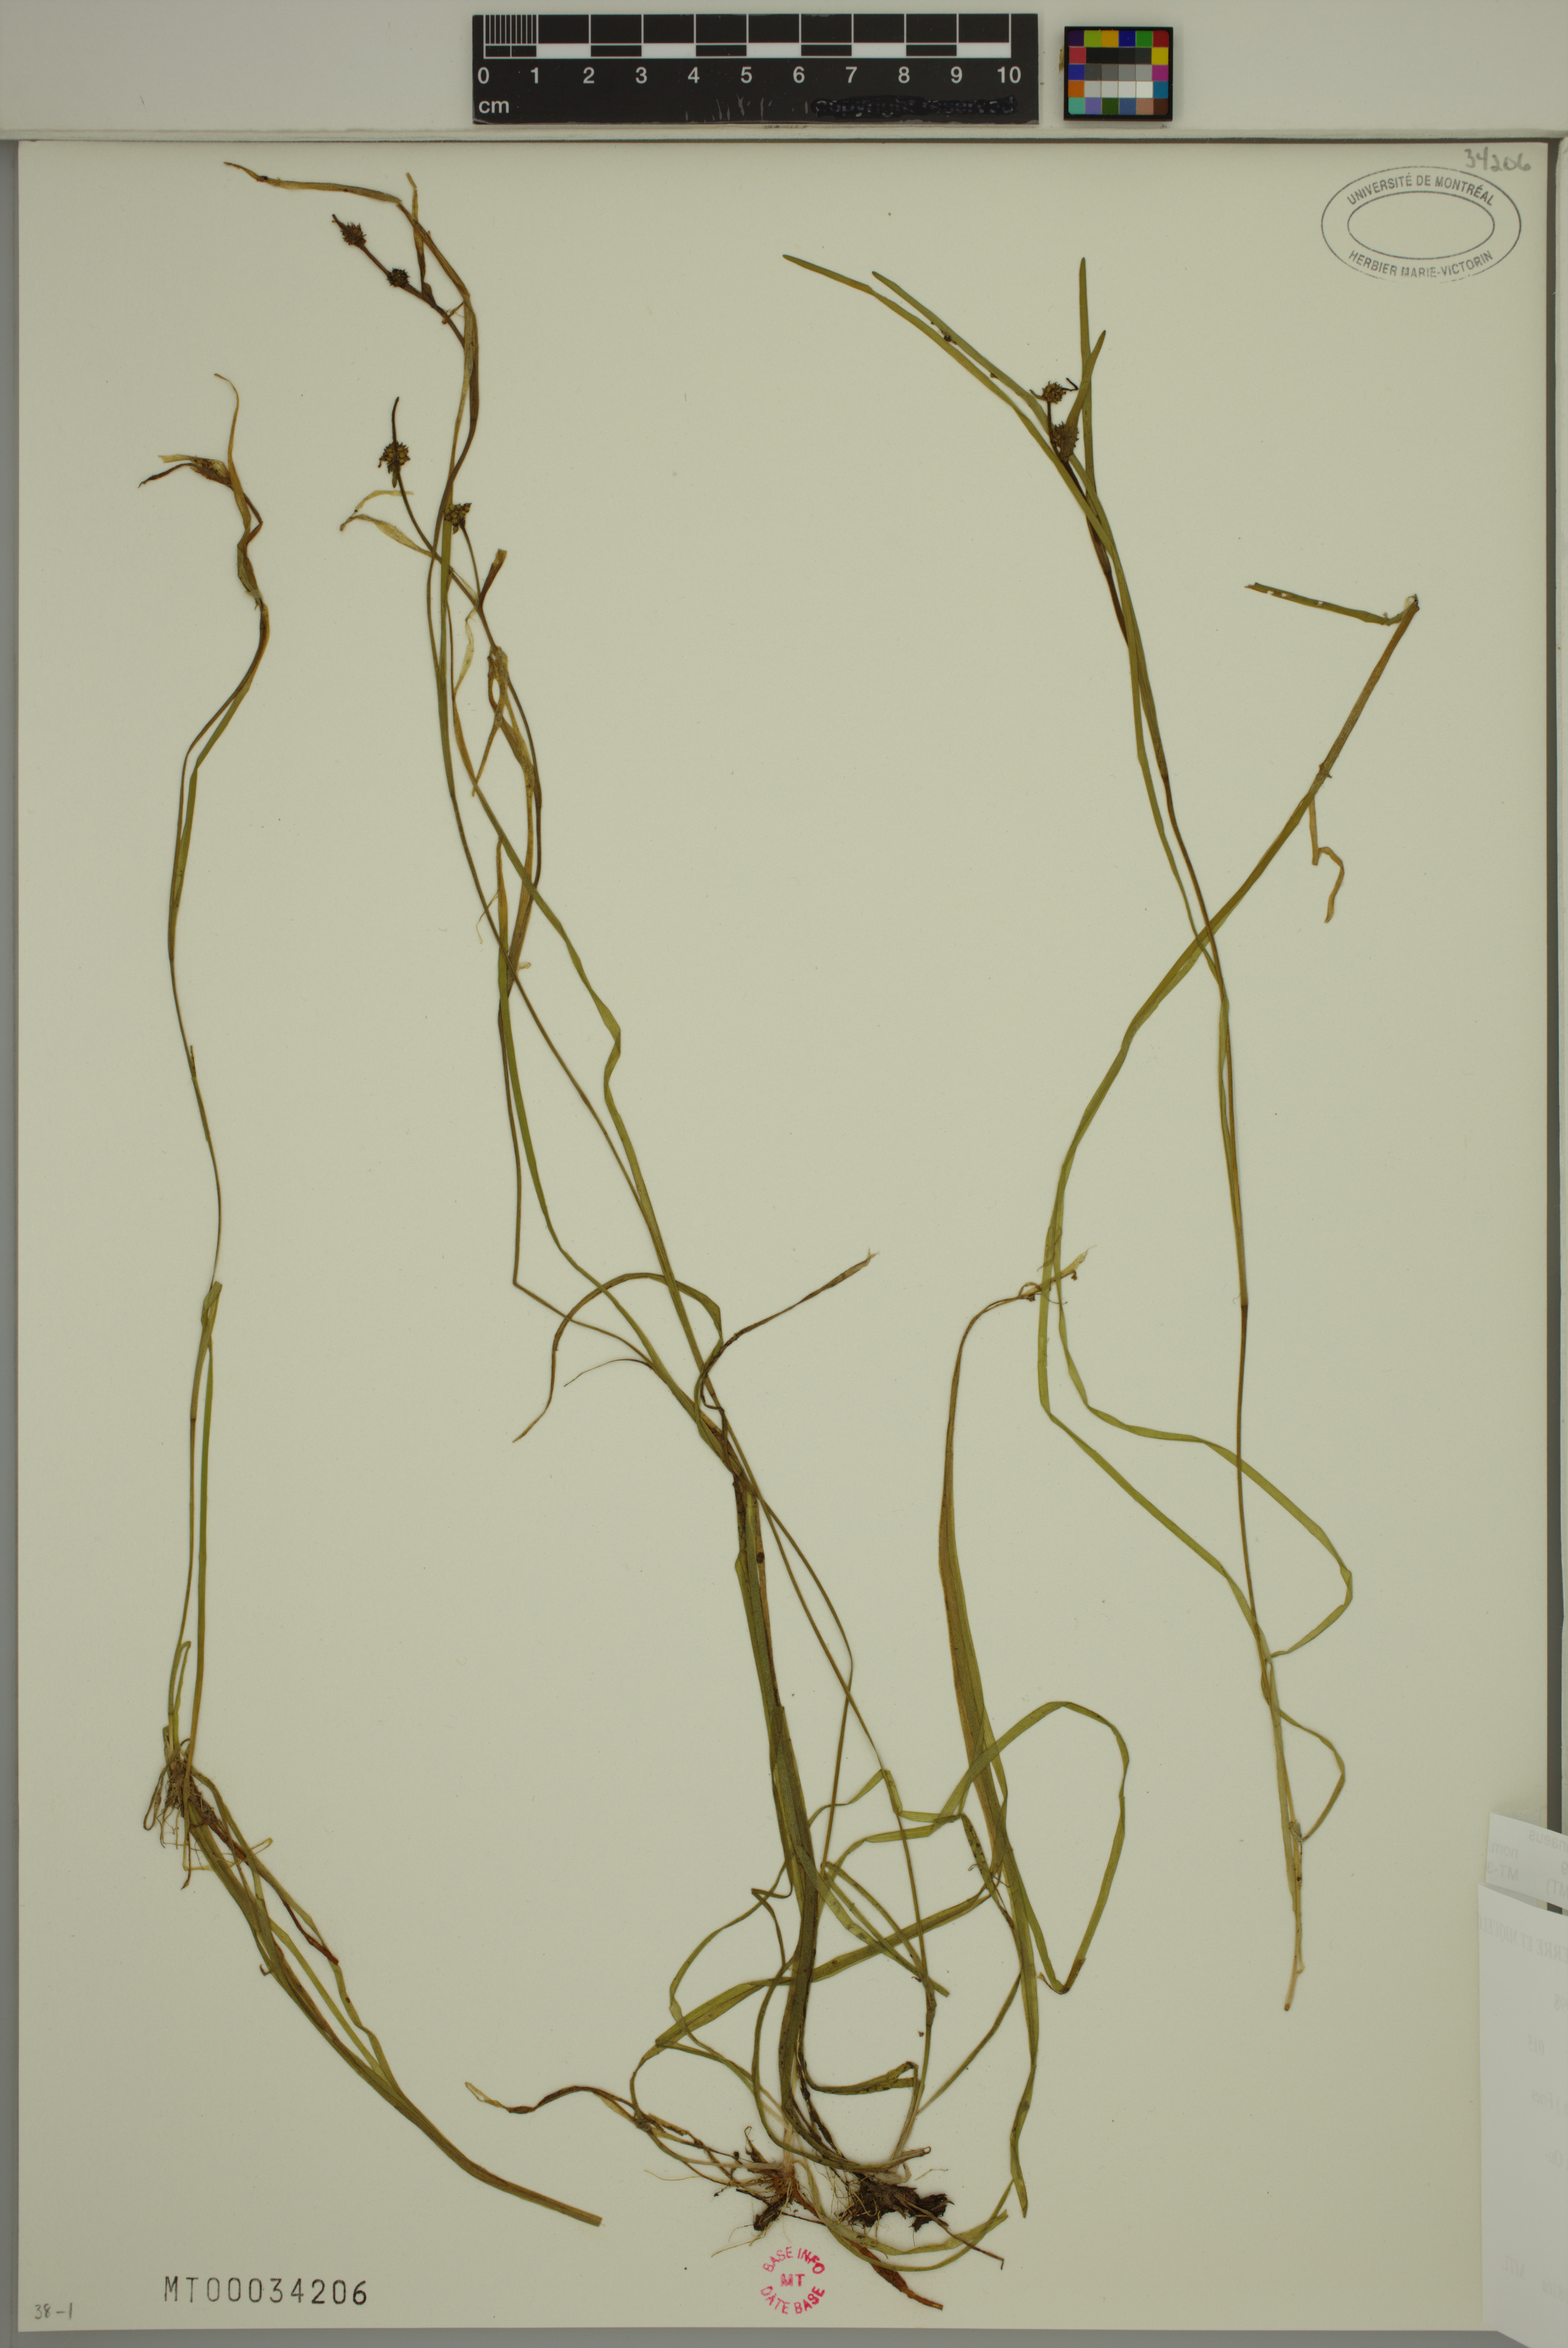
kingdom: Plantae
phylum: Tracheophyta
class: Liliopsida
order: Poales
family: Typhaceae
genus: Sparganium
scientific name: Sparganium natans
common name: Least bur-reed
